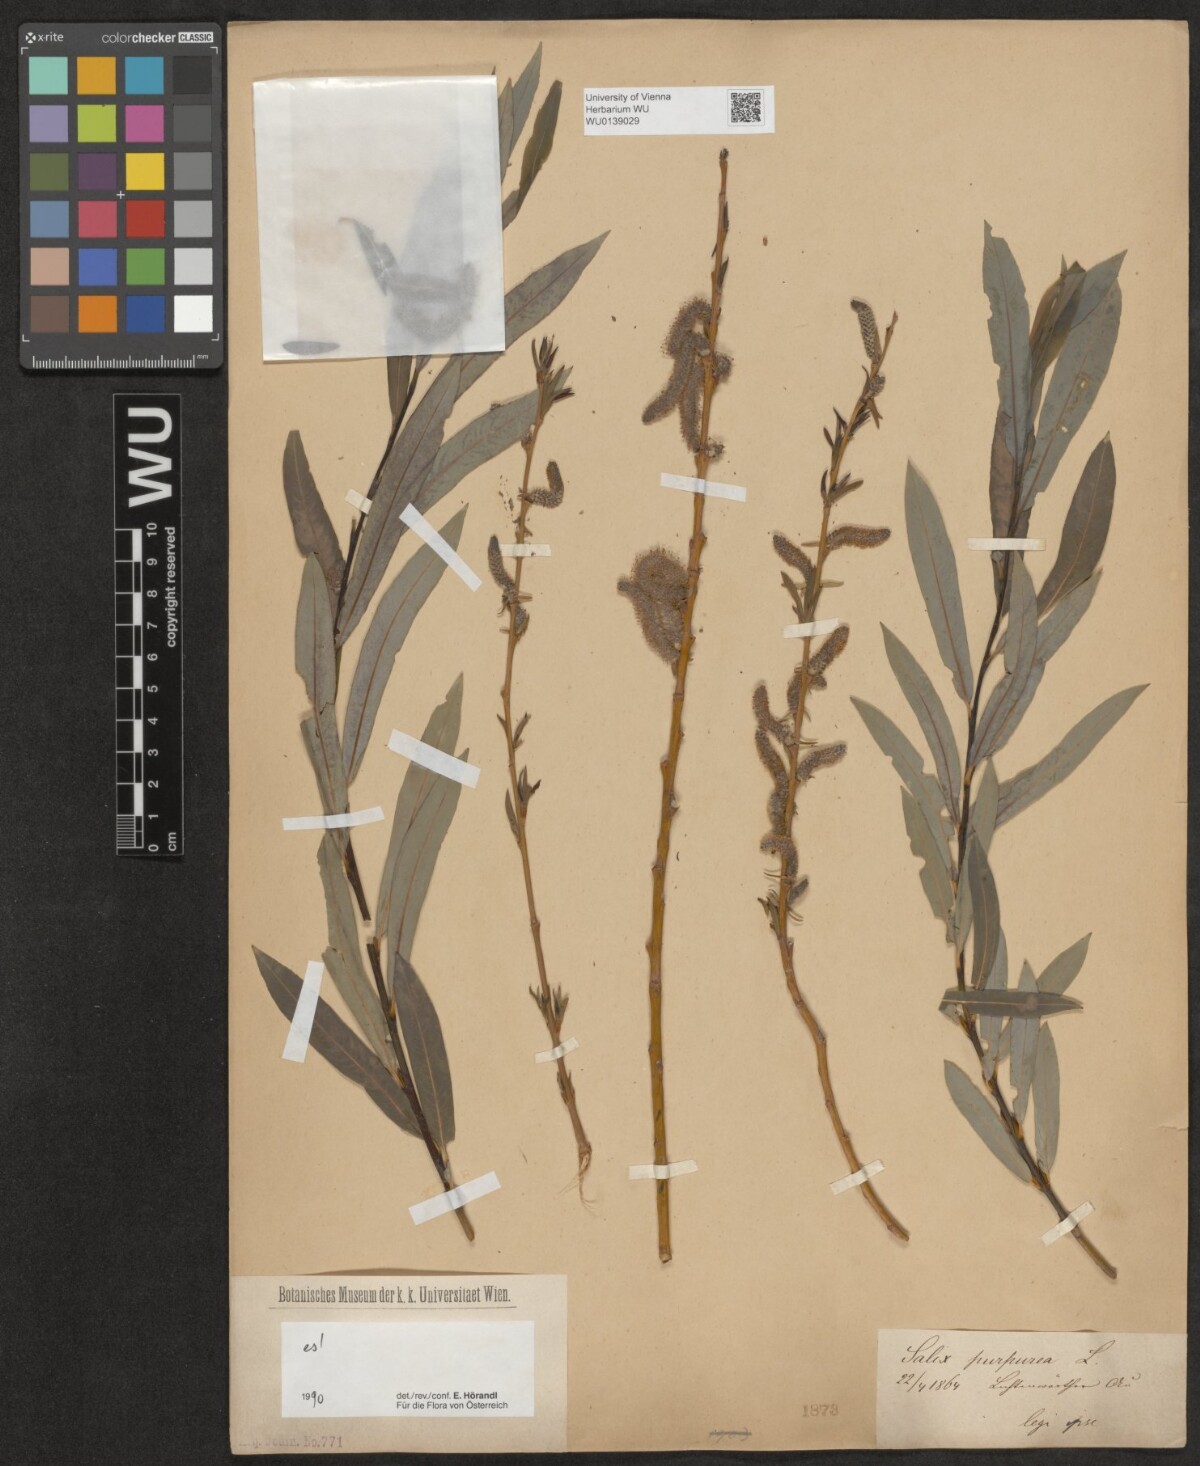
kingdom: Plantae
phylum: Tracheophyta
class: Magnoliopsida
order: Malpighiales
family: Salicaceae
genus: Salix
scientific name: Salix purpurea
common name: Purple willow
